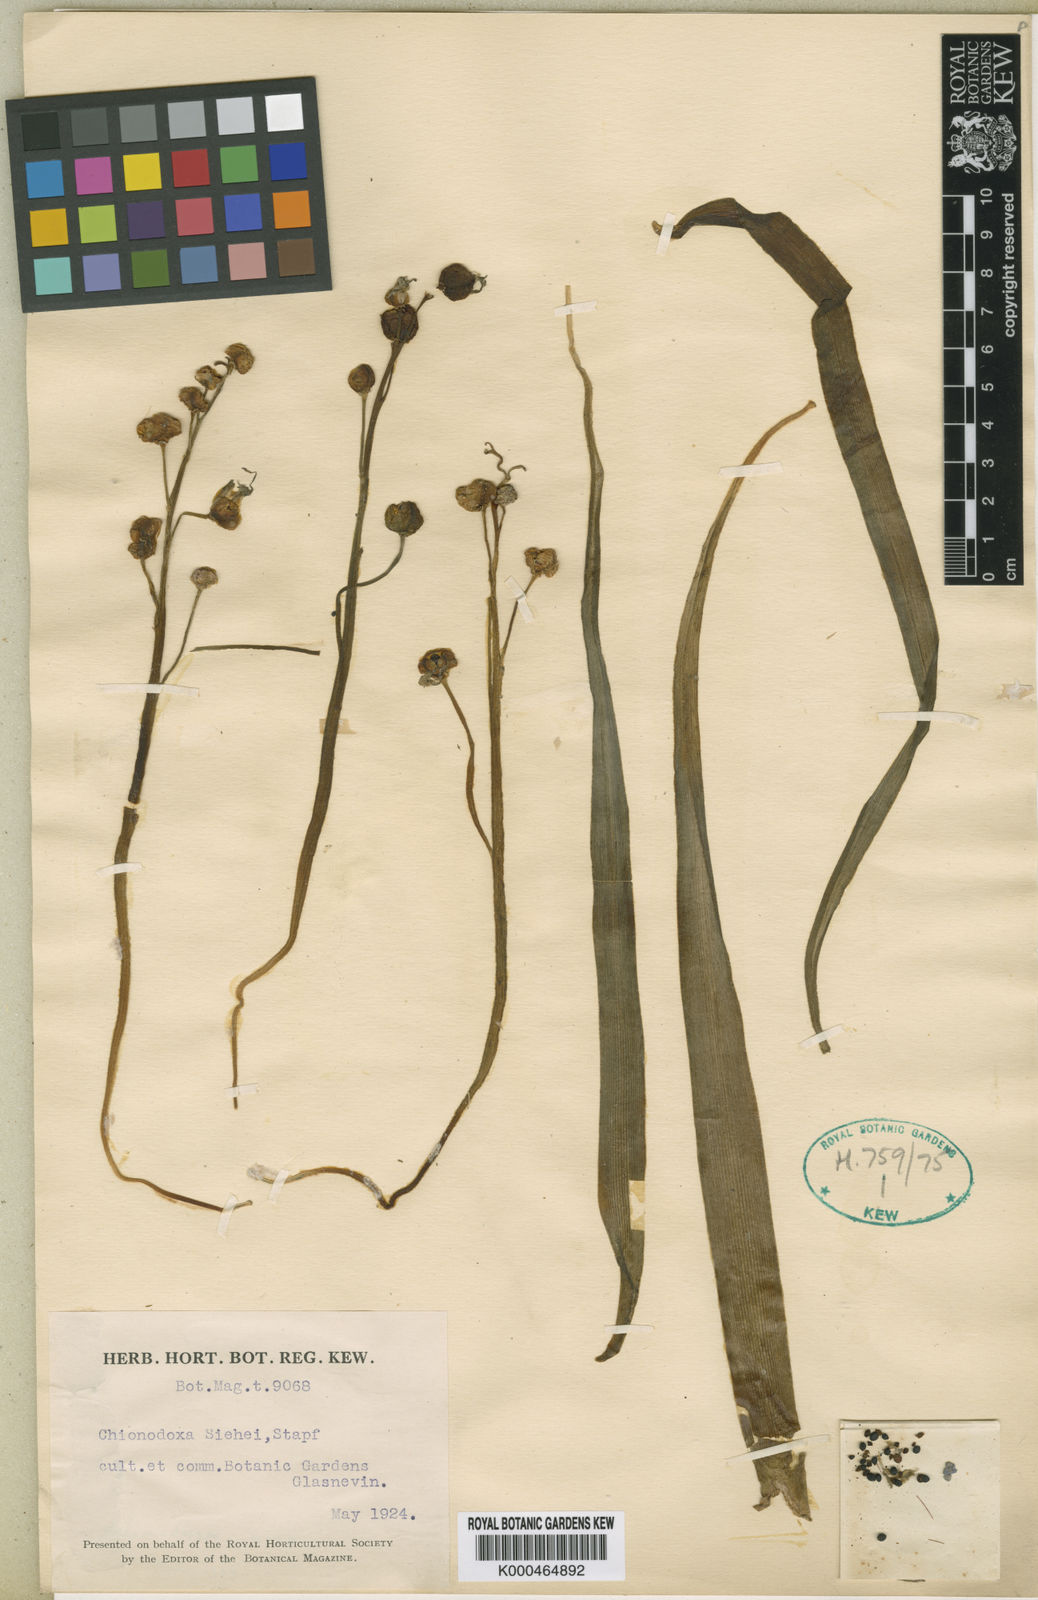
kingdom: Plantae
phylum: Tracheophyta
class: Liliopsida
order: Asparagales
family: Asparagaceae
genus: Scilla
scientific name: Scilla forbesii
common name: Glory-of-the-snow
